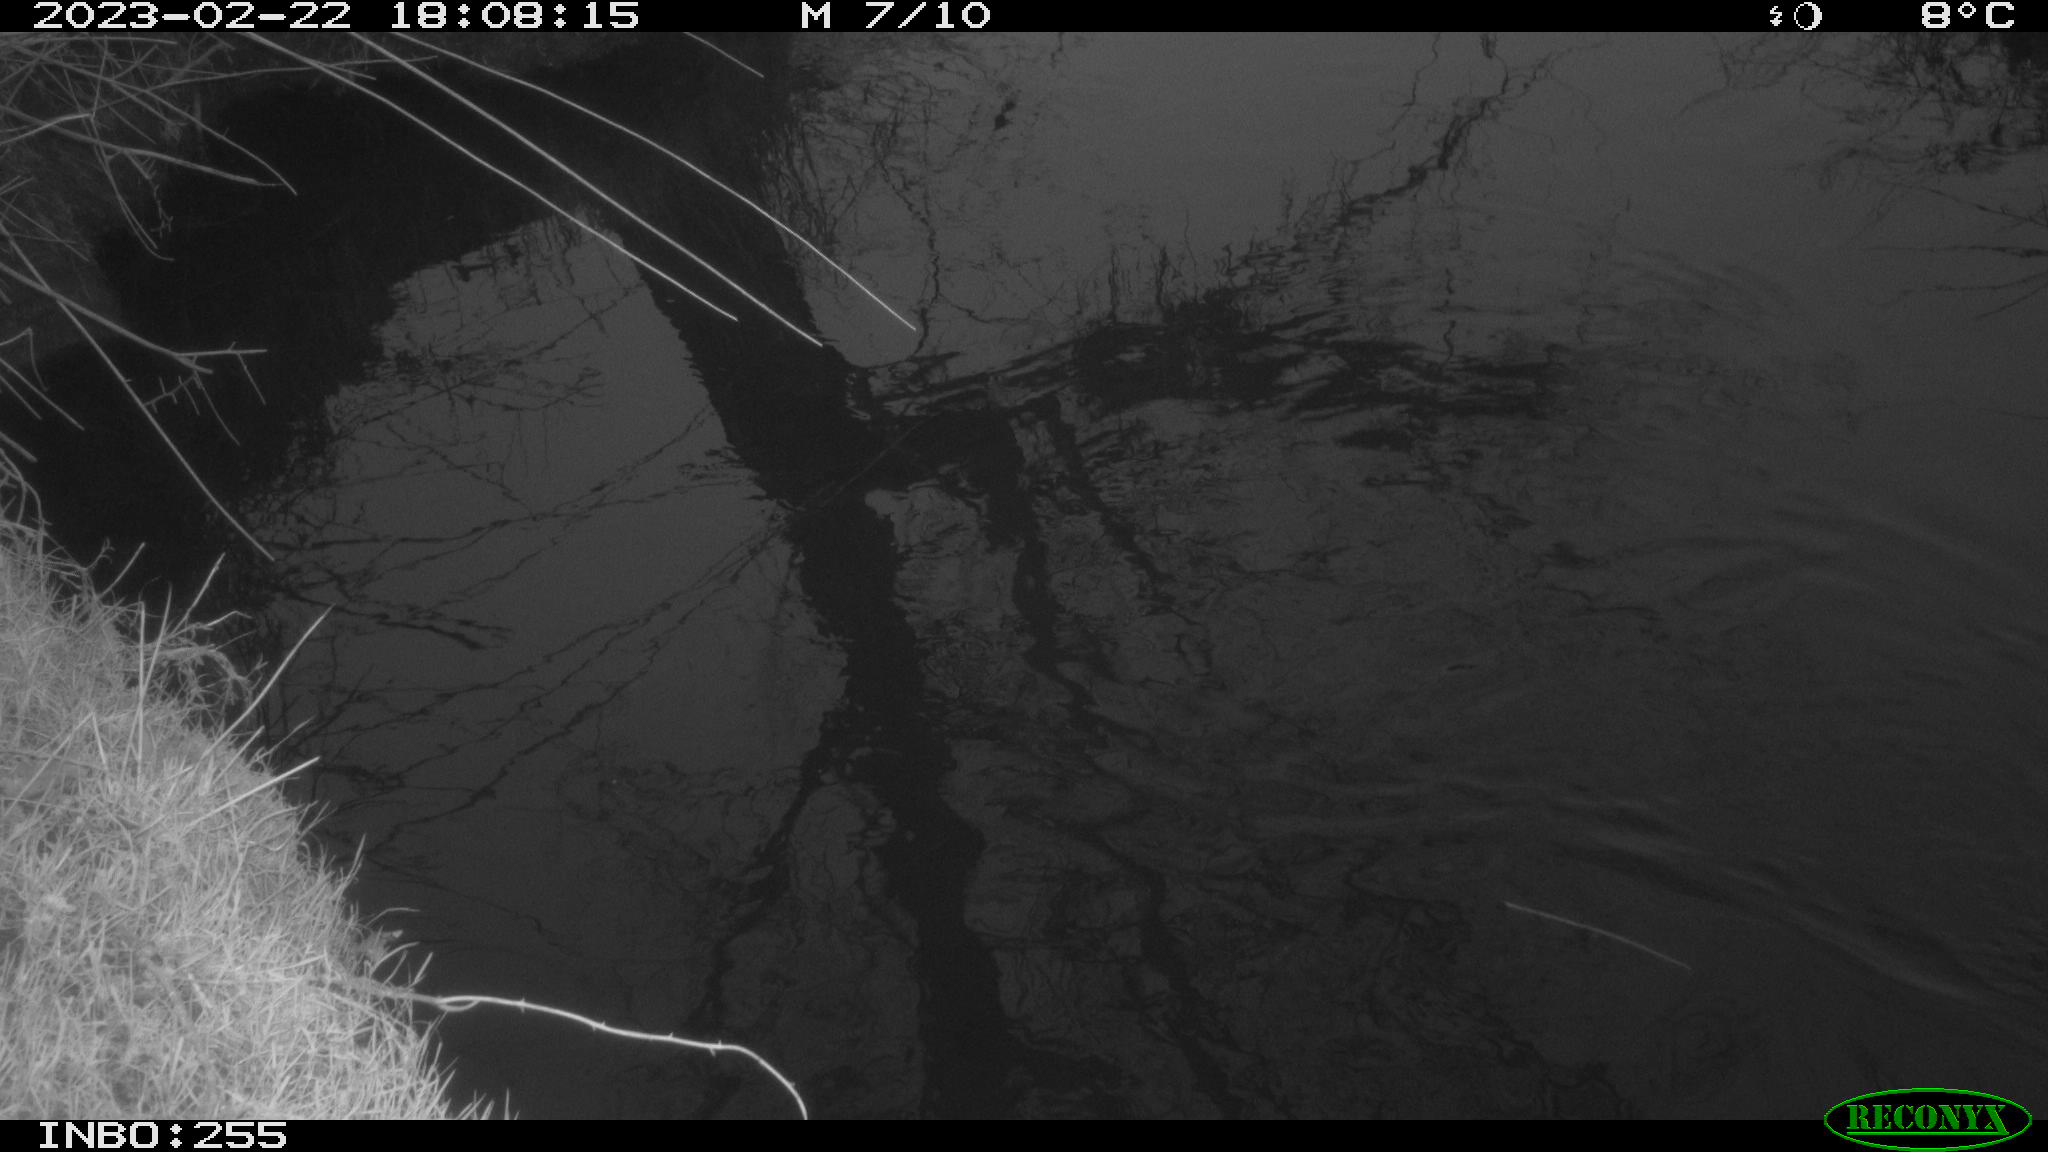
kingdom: Animalia
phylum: Chordata
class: Aves
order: Gruiformes
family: Rallidae
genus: Gallinula
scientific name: Gallinula chloropus
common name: Common moorhen
